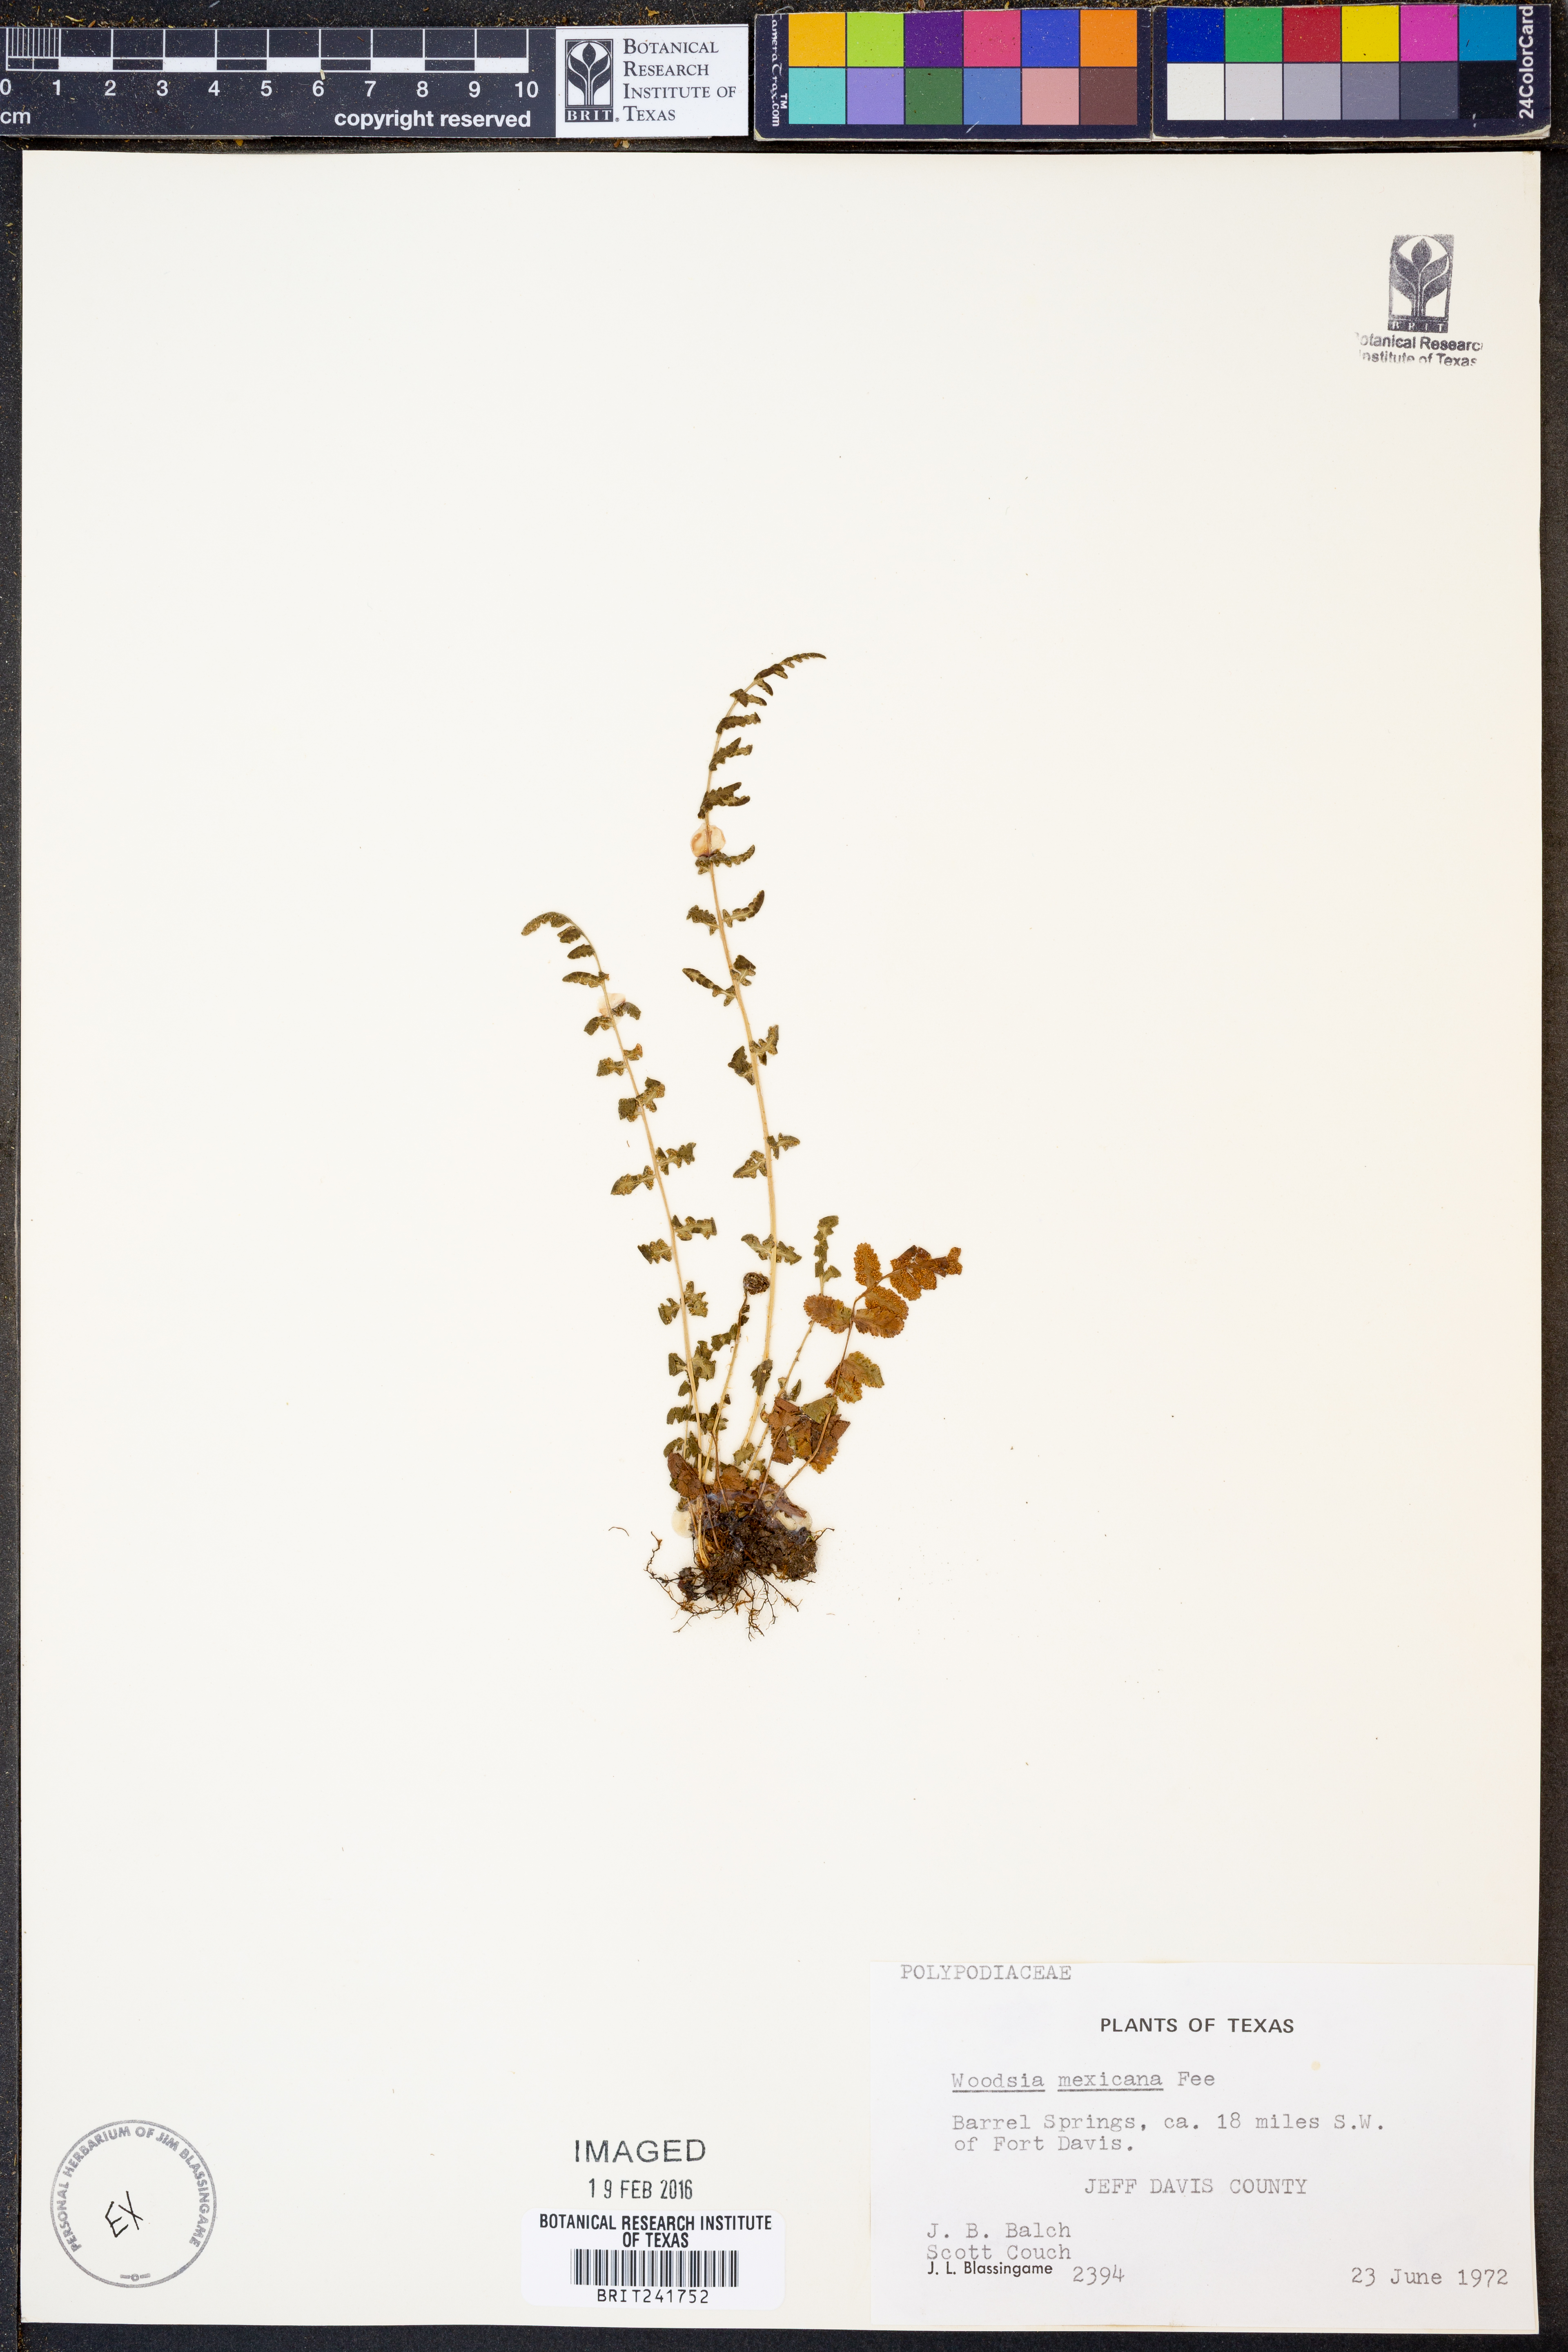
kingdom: Plantae
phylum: Tracheophyta
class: Polypodiopsida
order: Polypodiales
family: Woodsiaceae
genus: Physematium
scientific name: Physematium mexicanum
